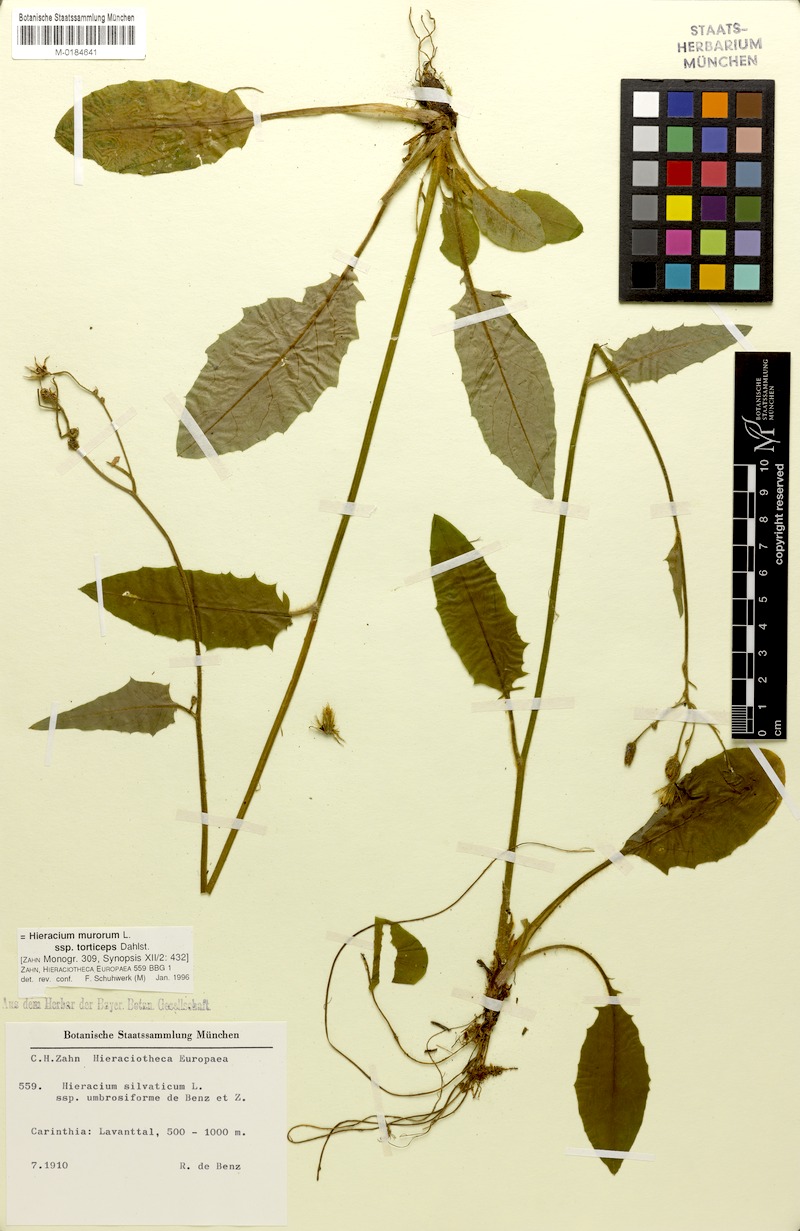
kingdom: Plantae
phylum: Tracheophyta
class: Magnoliopsida
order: Asterales
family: Asteraceae
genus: Hieracium
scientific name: Hieracium murorum
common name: Wall hawkweed
